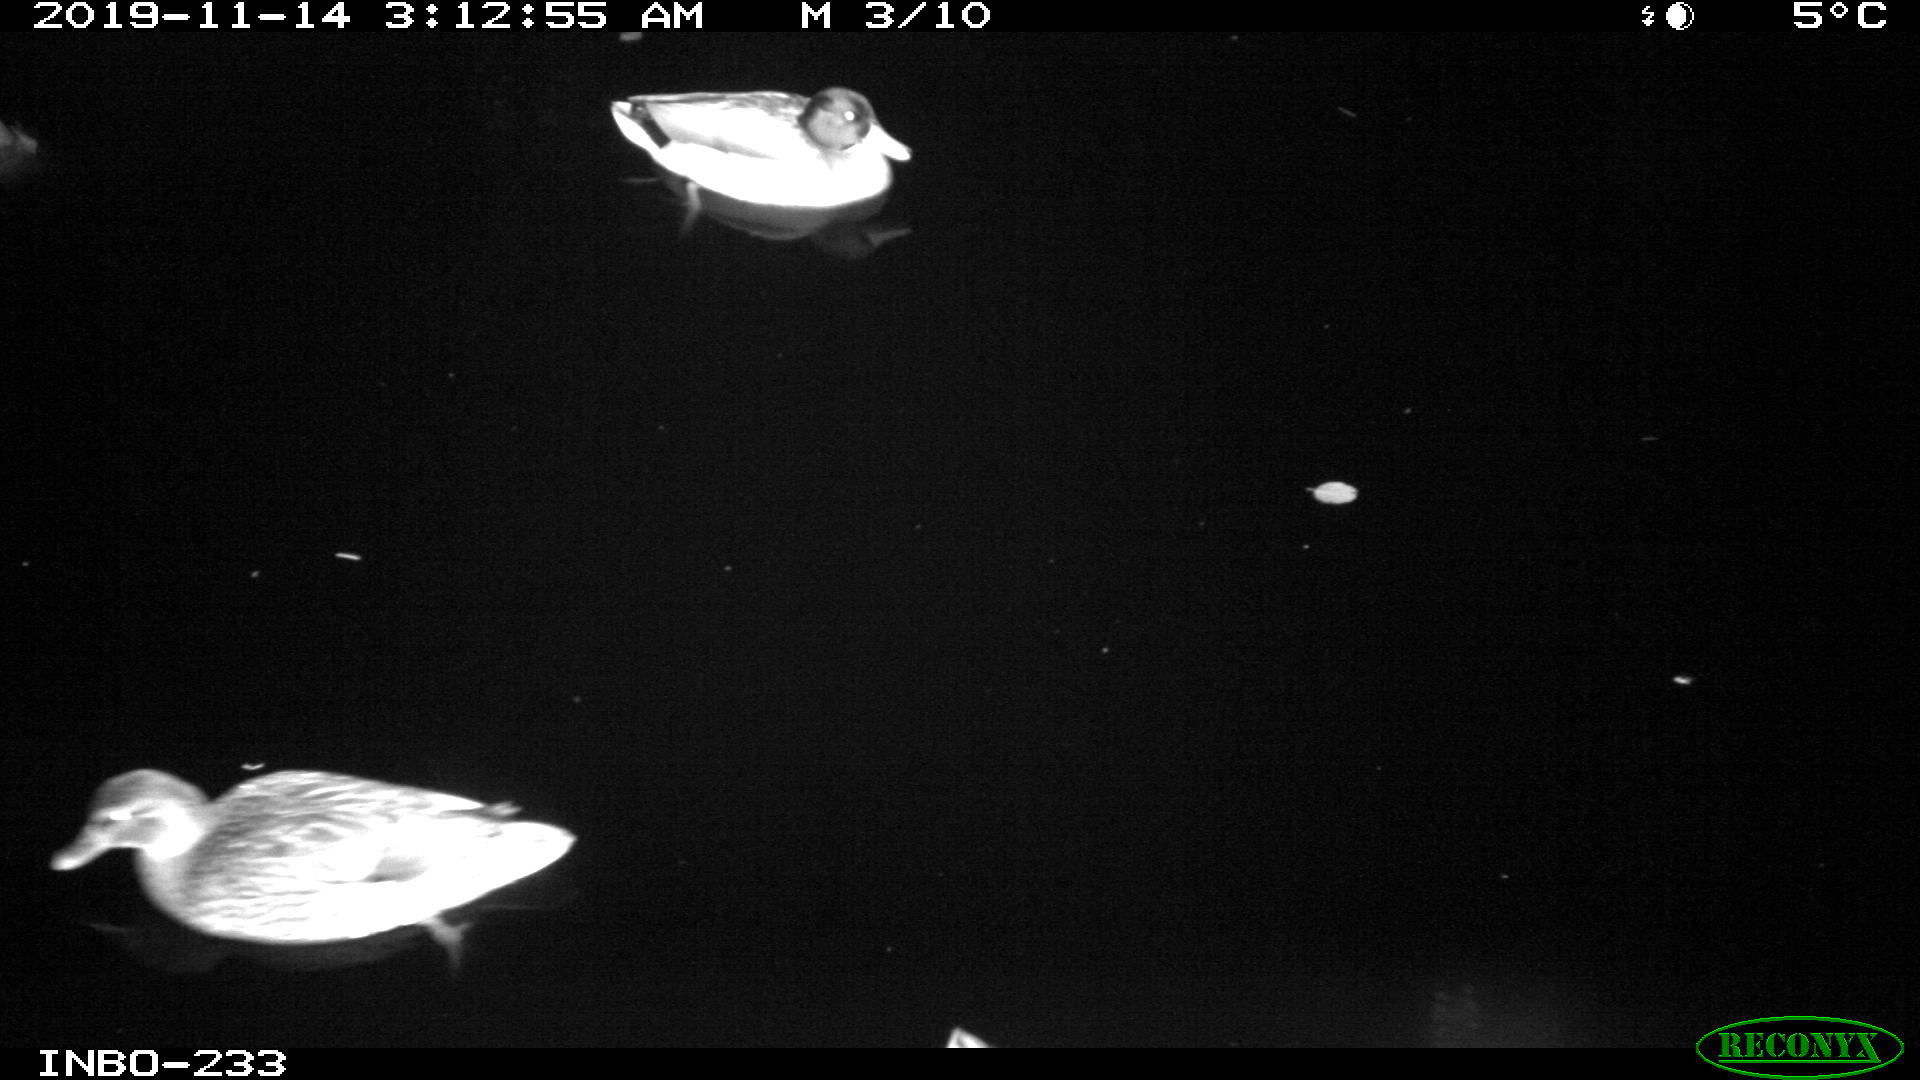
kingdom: Animalia
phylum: Chordata
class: Aves
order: Anseriformes
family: Anatidae
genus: Anas
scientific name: Anas platyrhynchos
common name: Mallard
